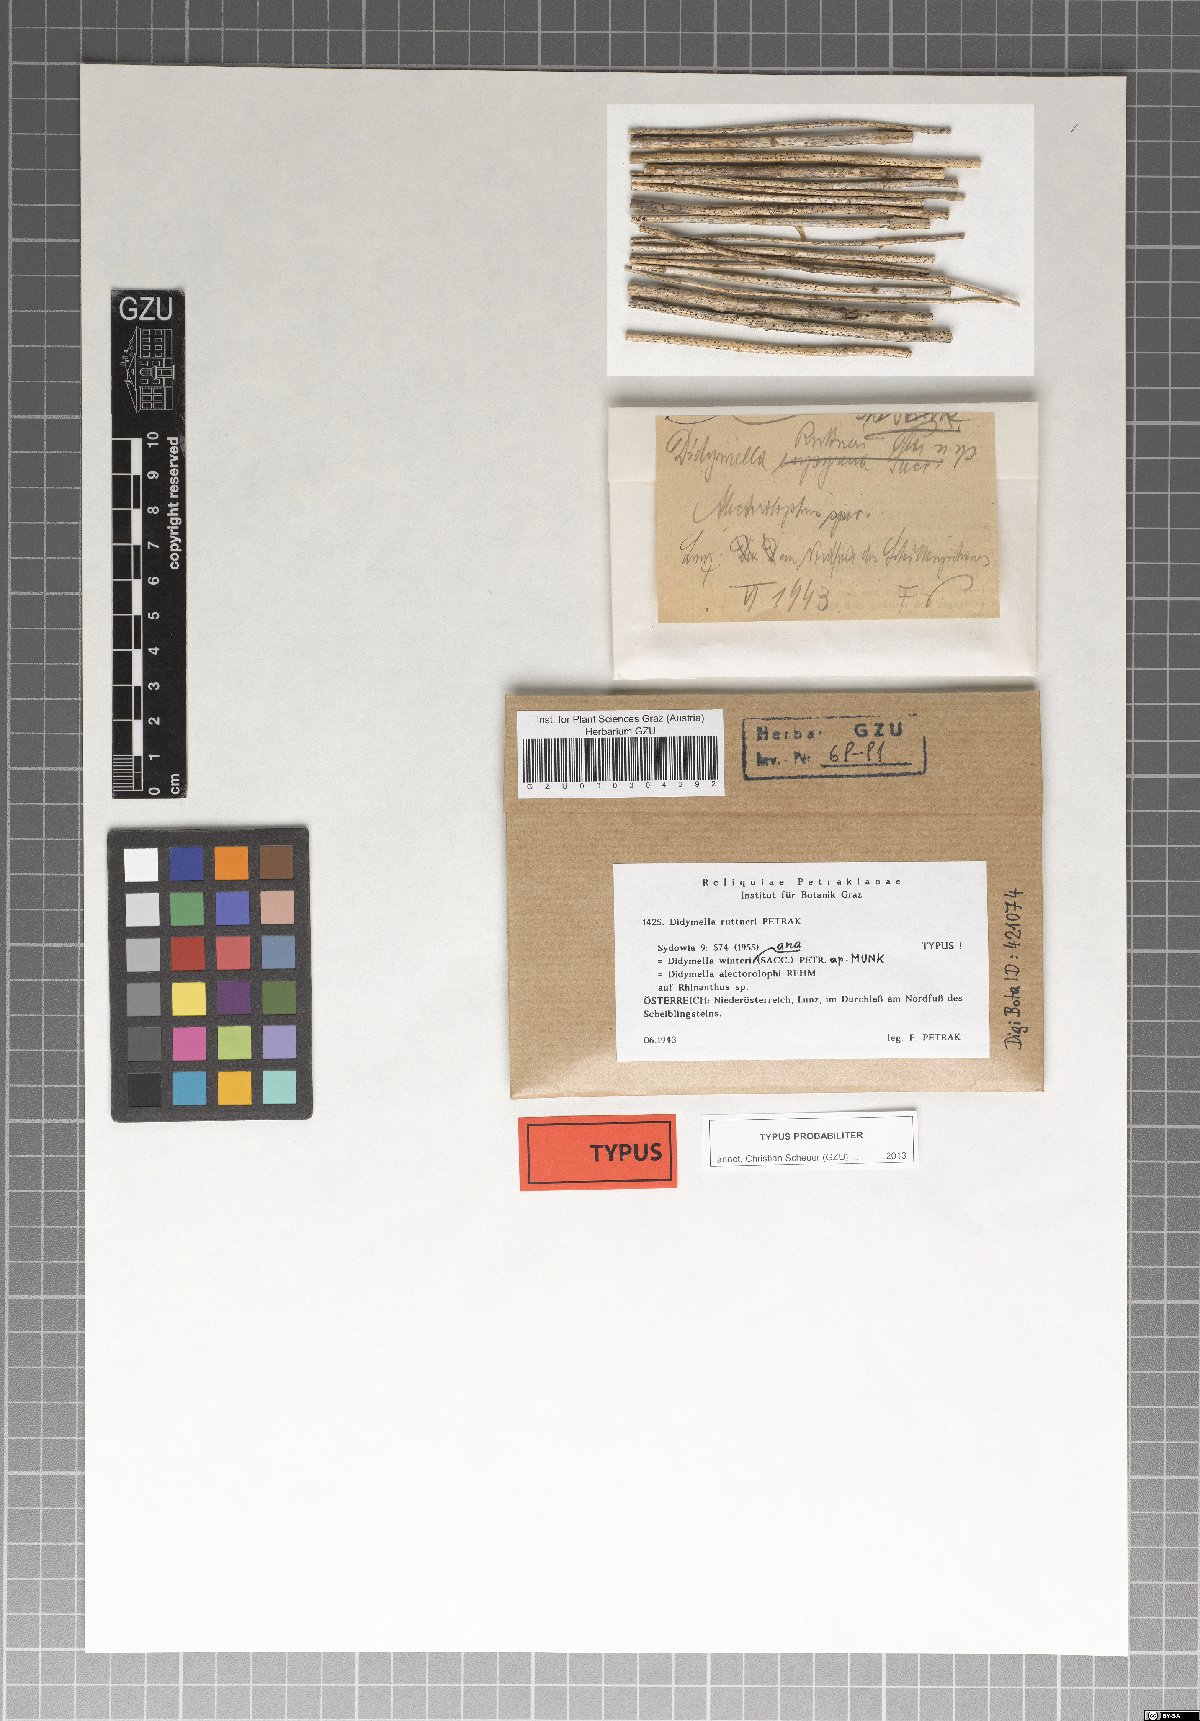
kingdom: Fungi
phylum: Ascomycota
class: Dothideomycetes
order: Pleosporales
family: Didymellaceae
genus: Didymella
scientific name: Didymella ruttneri
